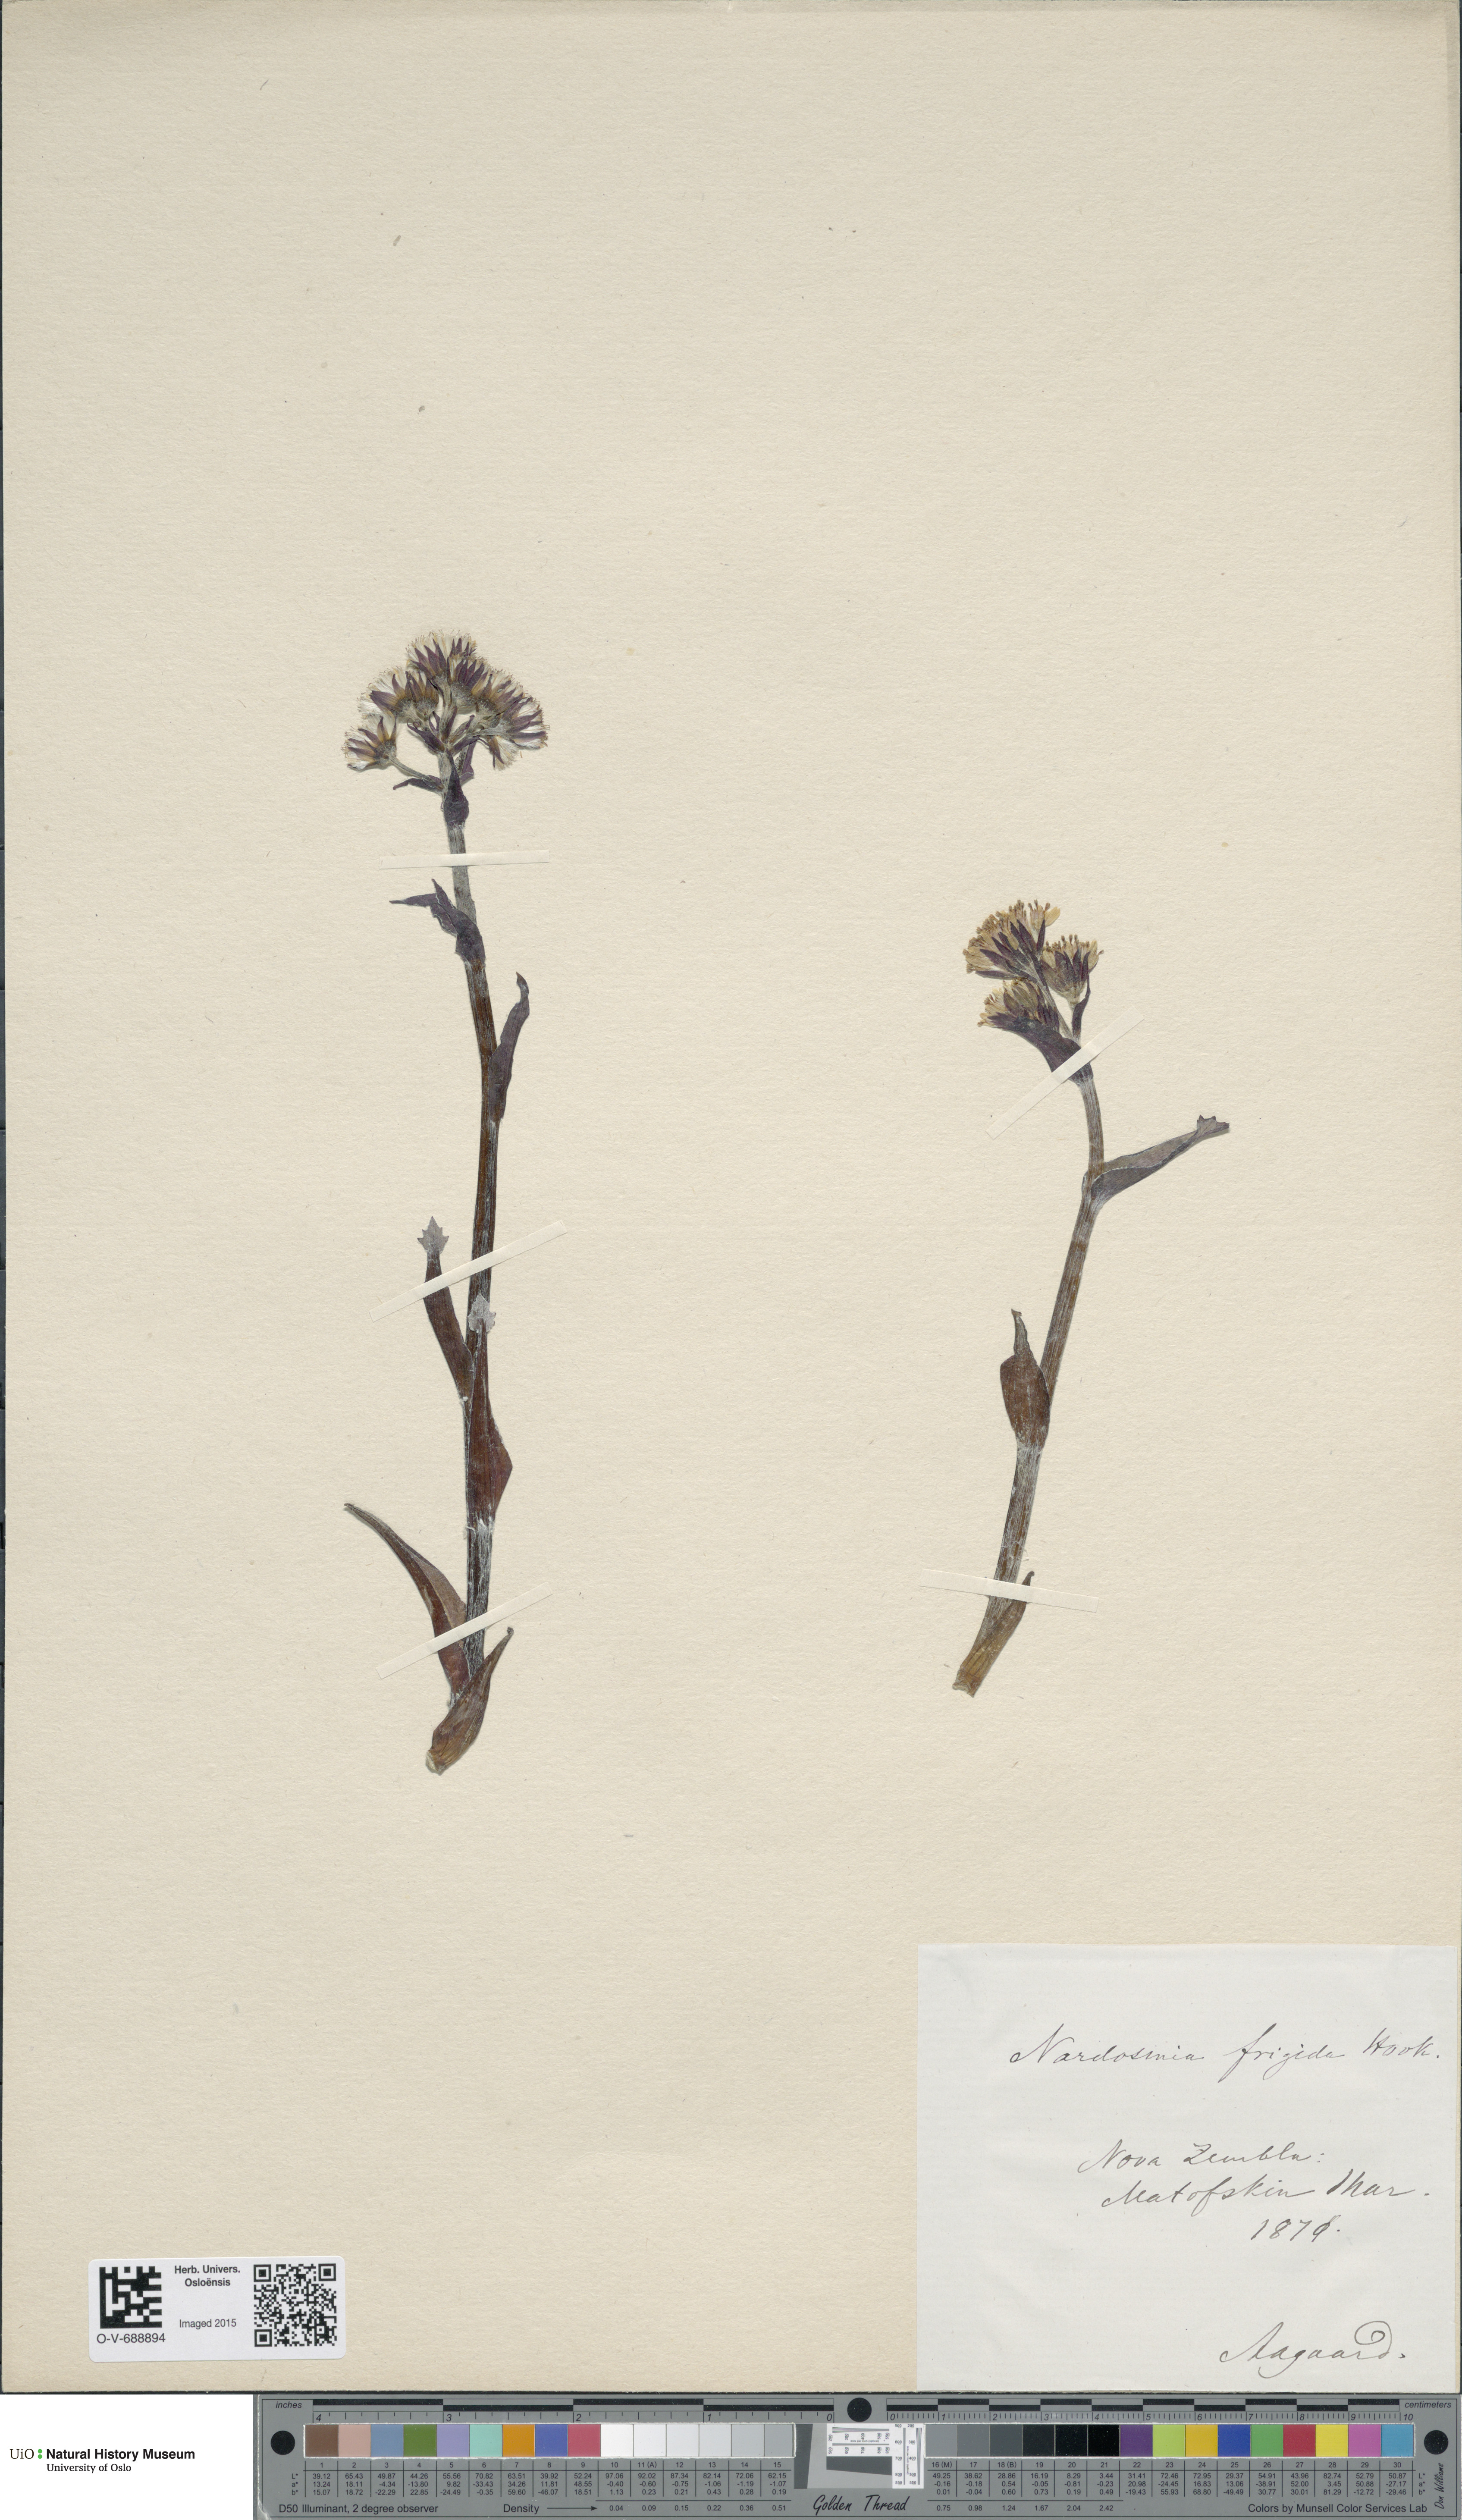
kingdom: Plantae
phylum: Tracheophyta
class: Magnoliopsida
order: Asterales
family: Asteraceae
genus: Petasites
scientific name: Petasites frigidus
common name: Arctic butterbur
